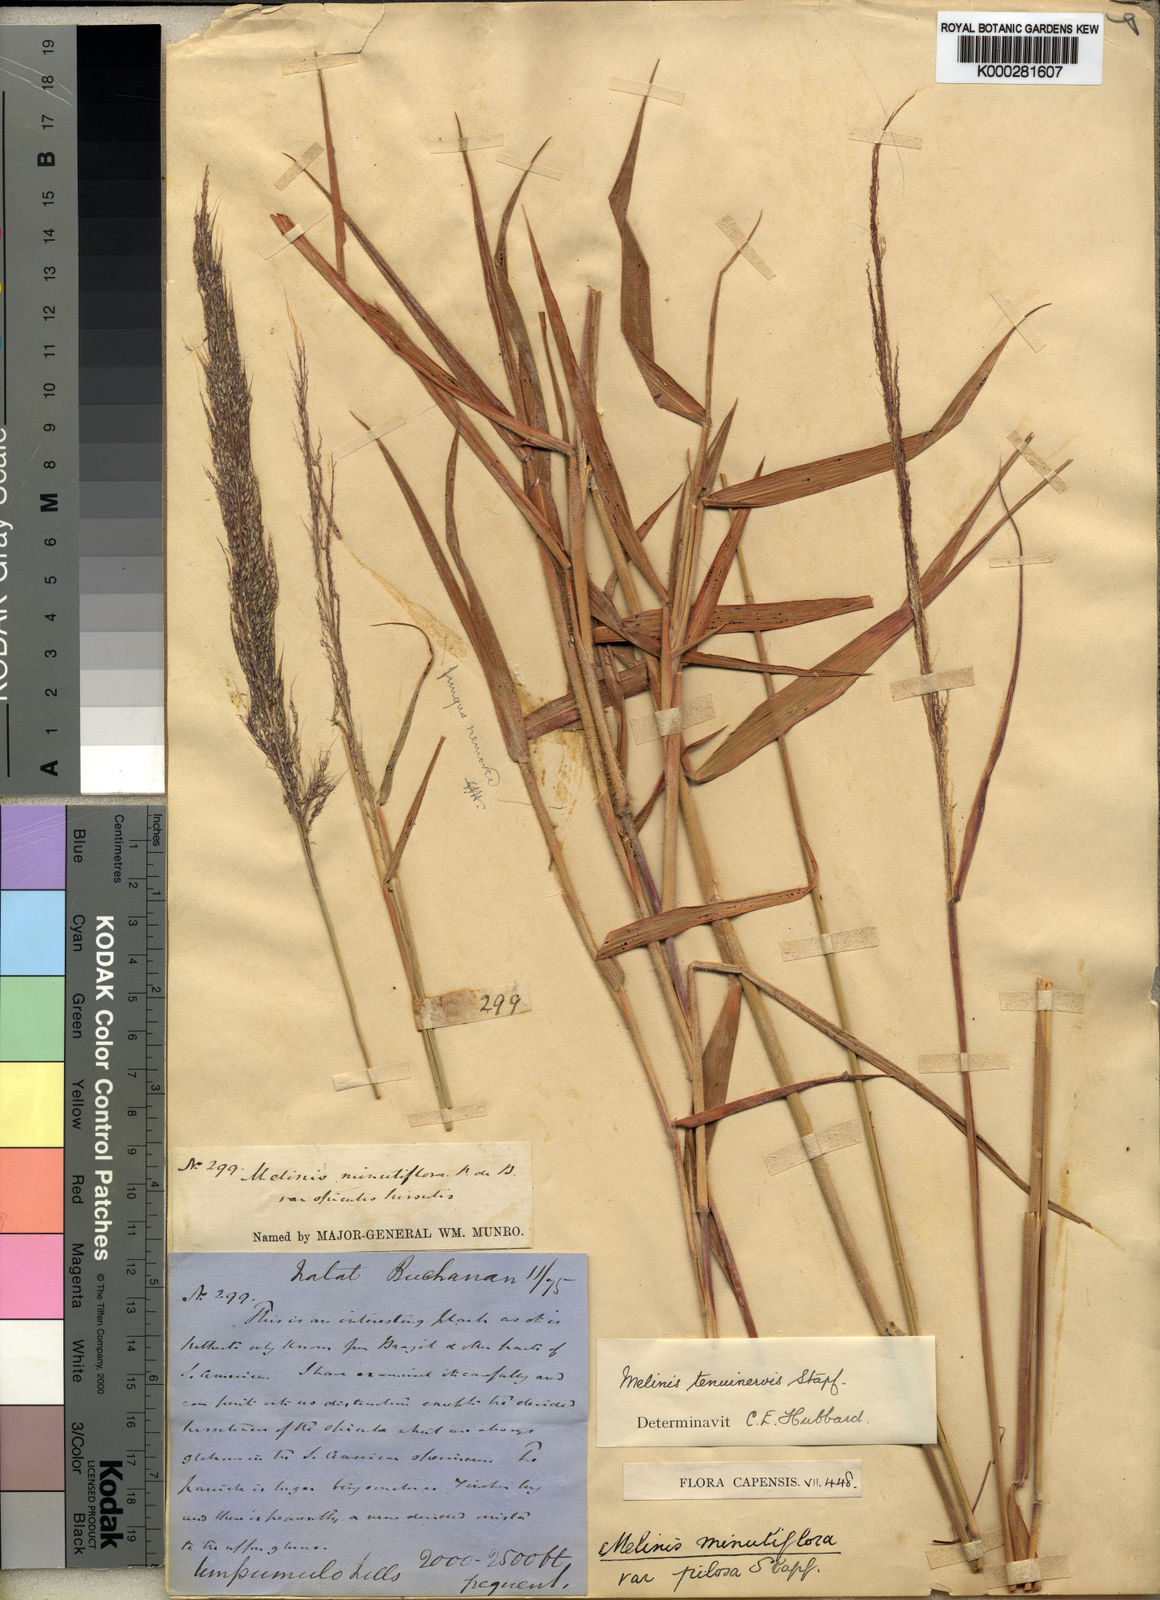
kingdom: Plantae
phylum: Tracheophyta
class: Liliopsida
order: Poales
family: Poaceae
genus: Melinis
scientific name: Melinis minutiflora
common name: Molassesgrass
